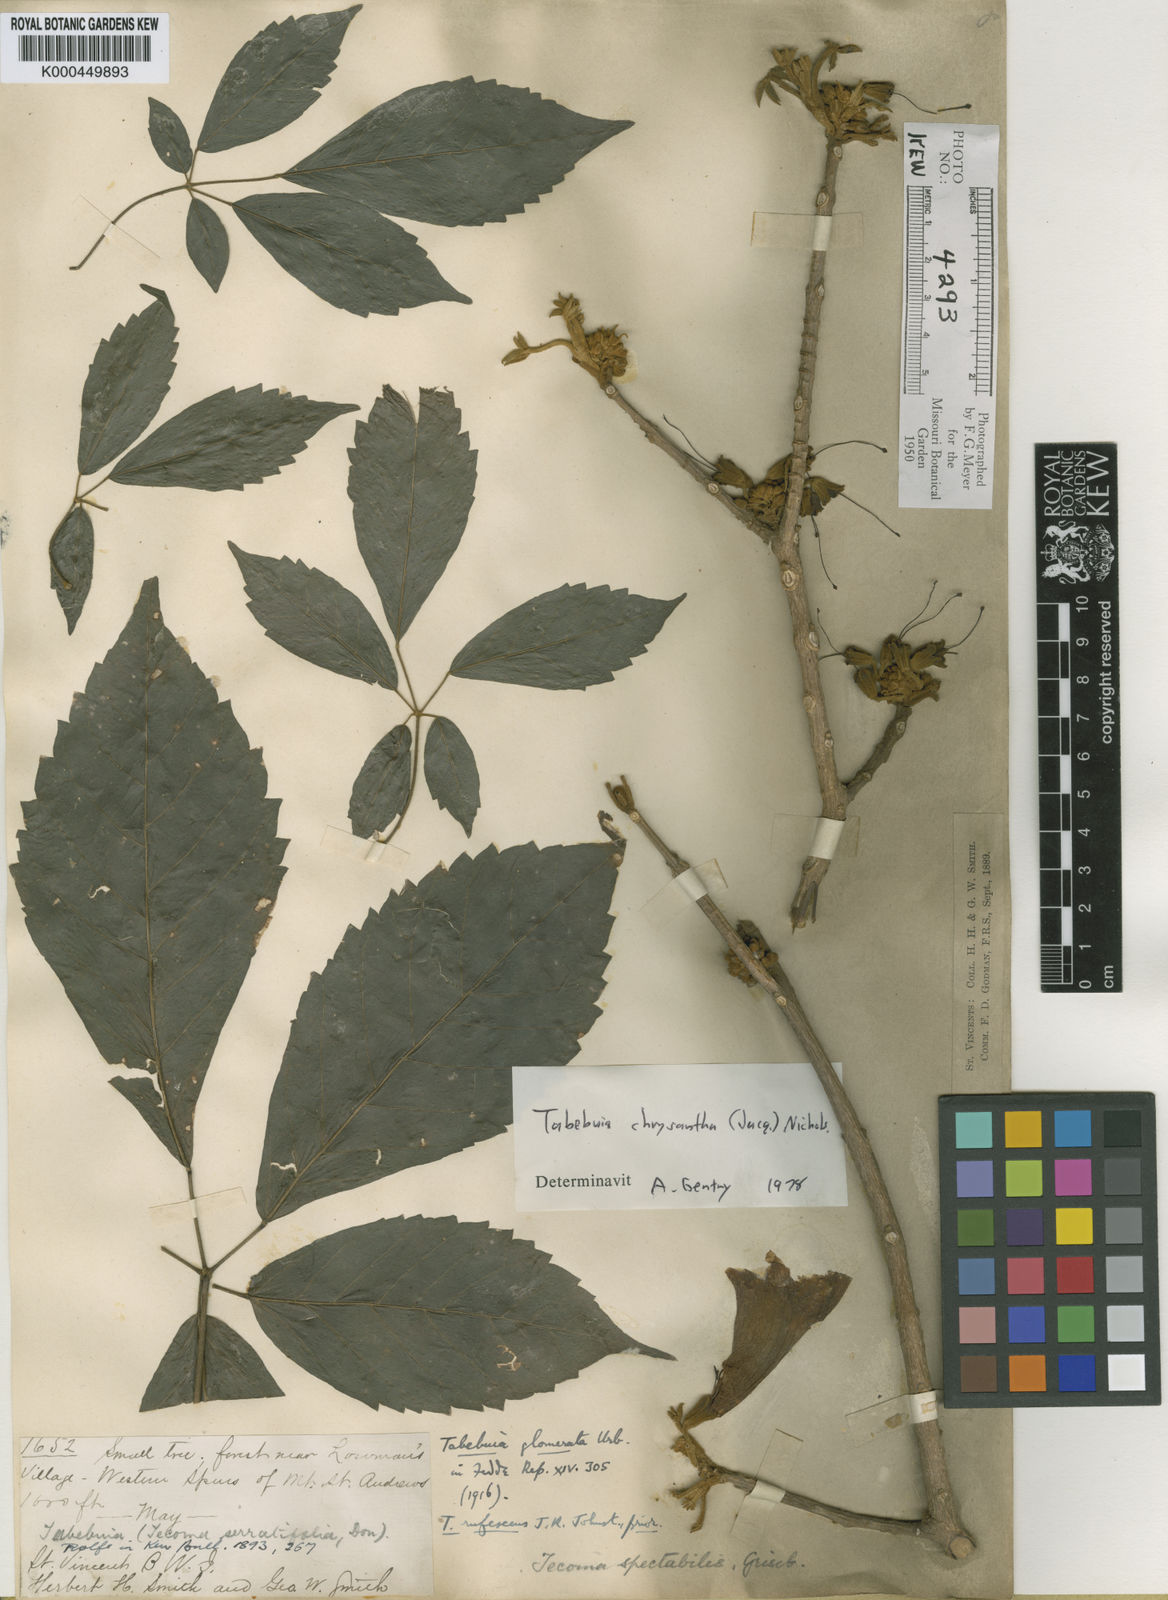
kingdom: Plantae
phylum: Tracheophyta
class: Magnoliopsida
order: Lamiales
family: Bignoniaceae
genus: Handroanthus
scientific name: Handroanthus chrysanthus
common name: Trumpet trees
